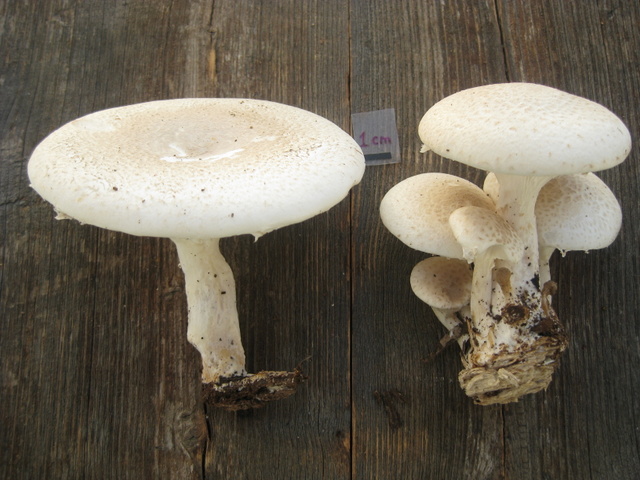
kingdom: Fungi
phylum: Basidiomycota
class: Agaricomycetes
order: Agaricales
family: Pleurotaceae
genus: Pleurotus
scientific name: Pleurotus dryinus
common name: korkagtig østershat
